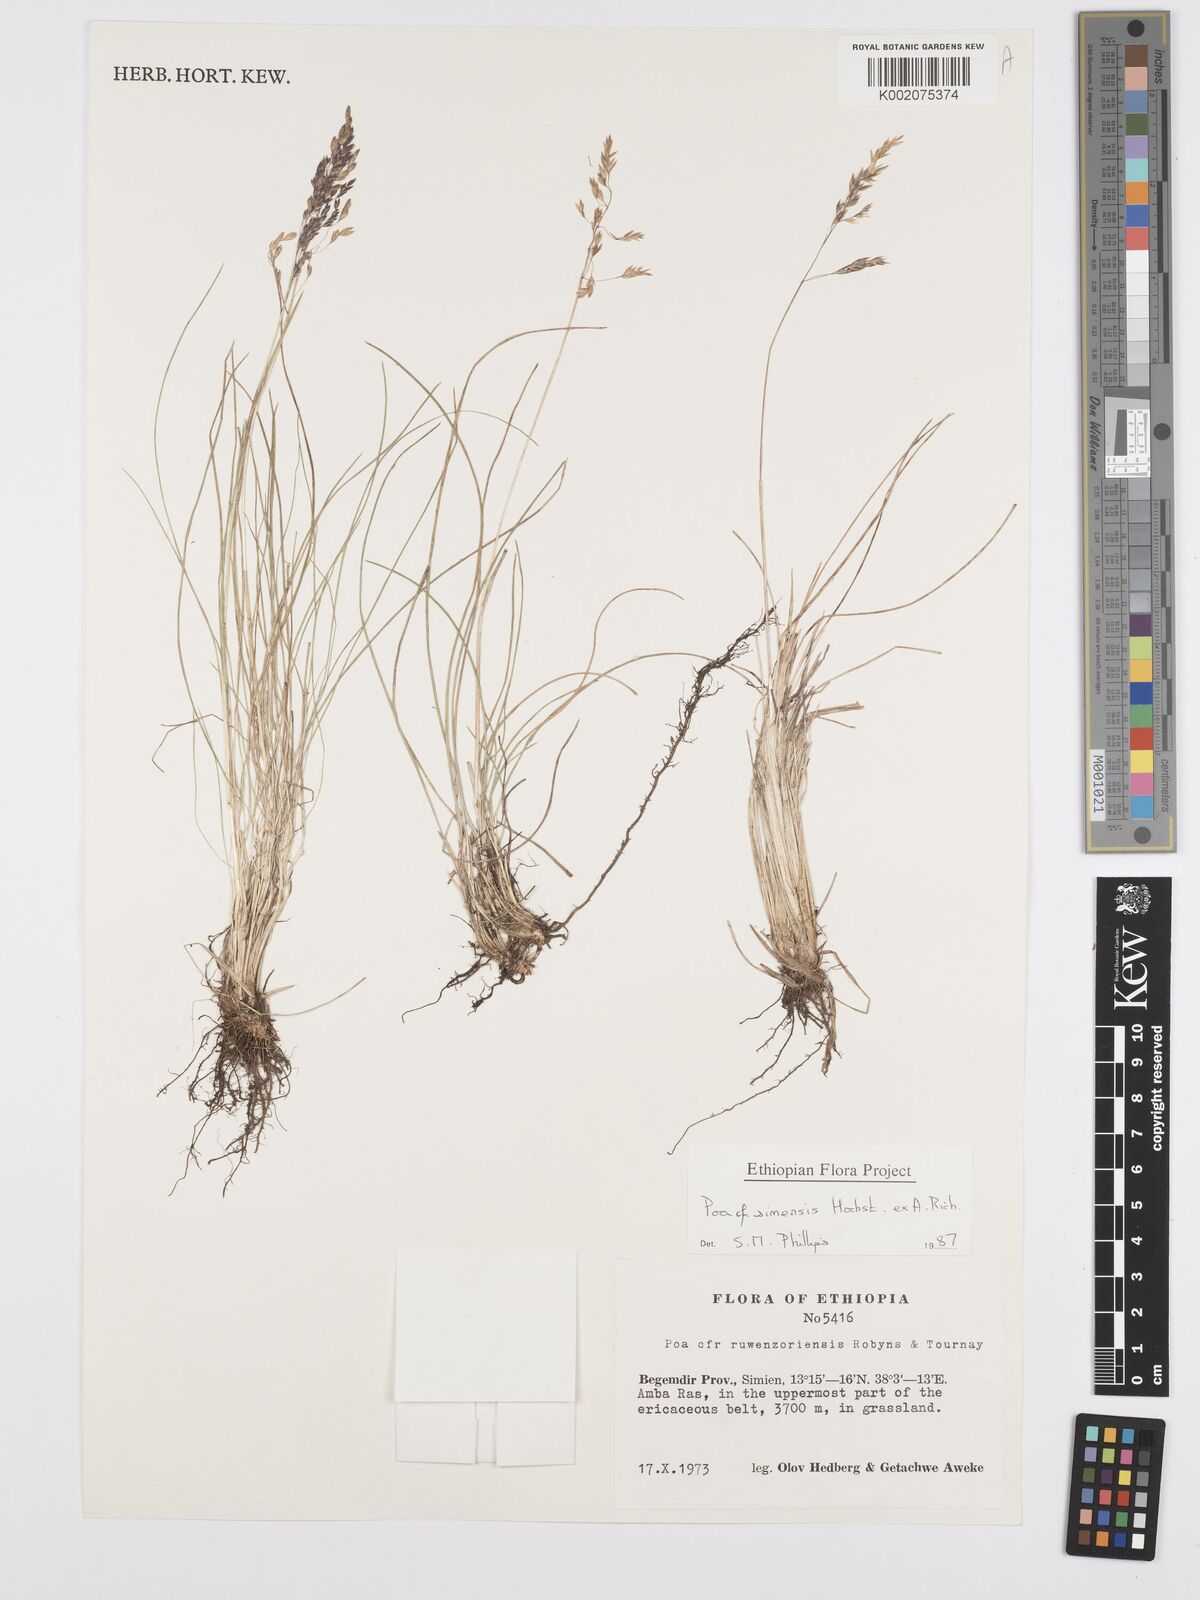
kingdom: Plantae
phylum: Tracheophyta
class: Liliopsida
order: Poales
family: Poaceae
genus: Poa
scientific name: Poa simensis
